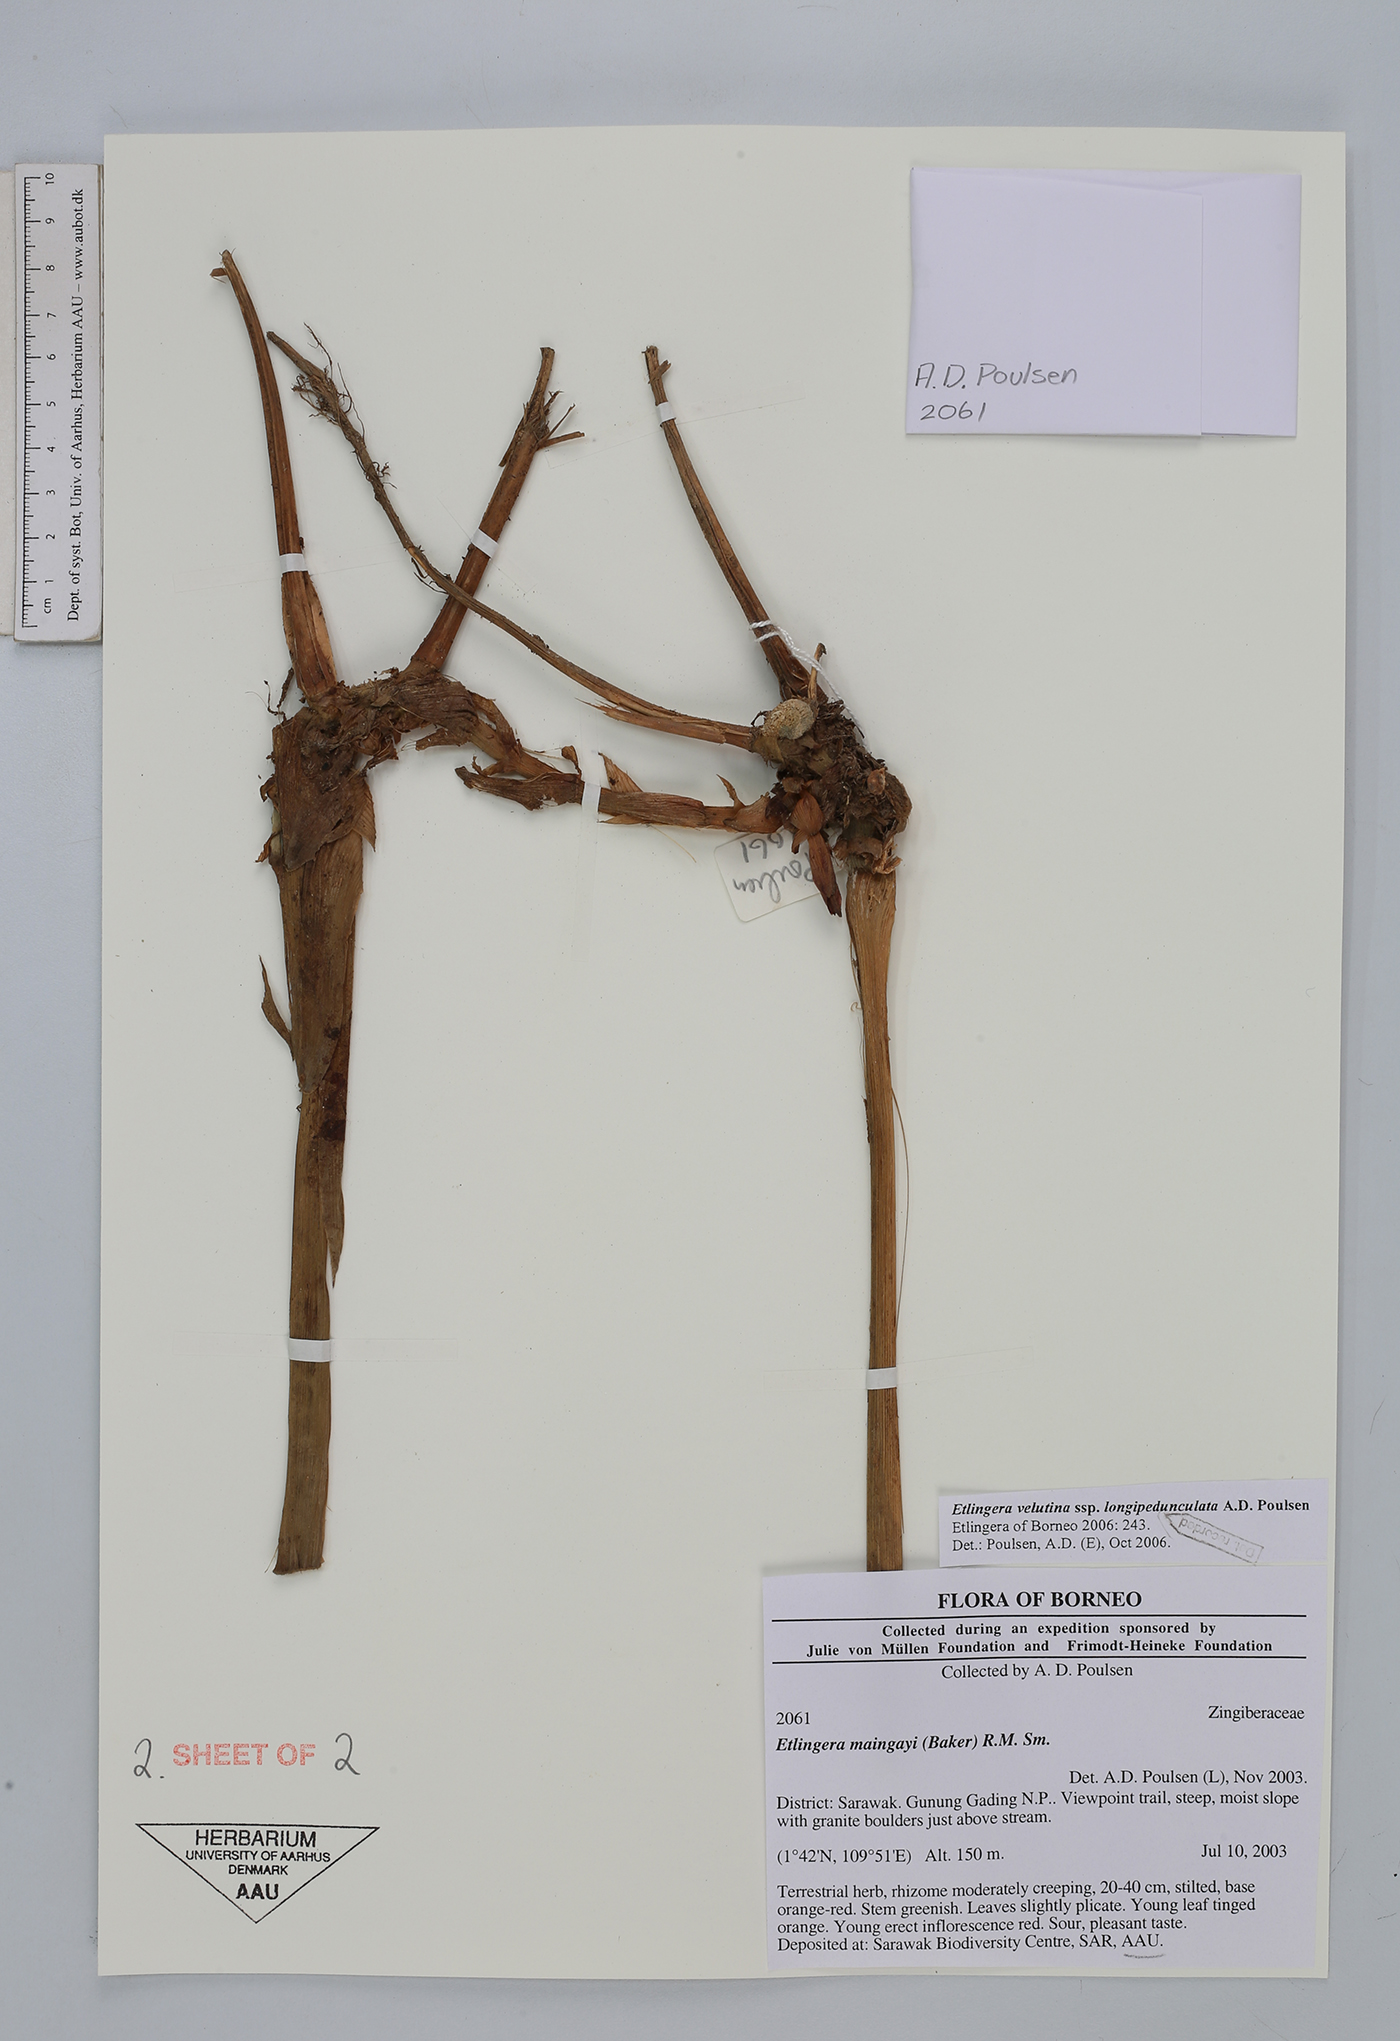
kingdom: Plantae
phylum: Tracheophyta
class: Liliopsida
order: Zingiberales
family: Zingiberaceae
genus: Etlingera
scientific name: Etlingera velutina
